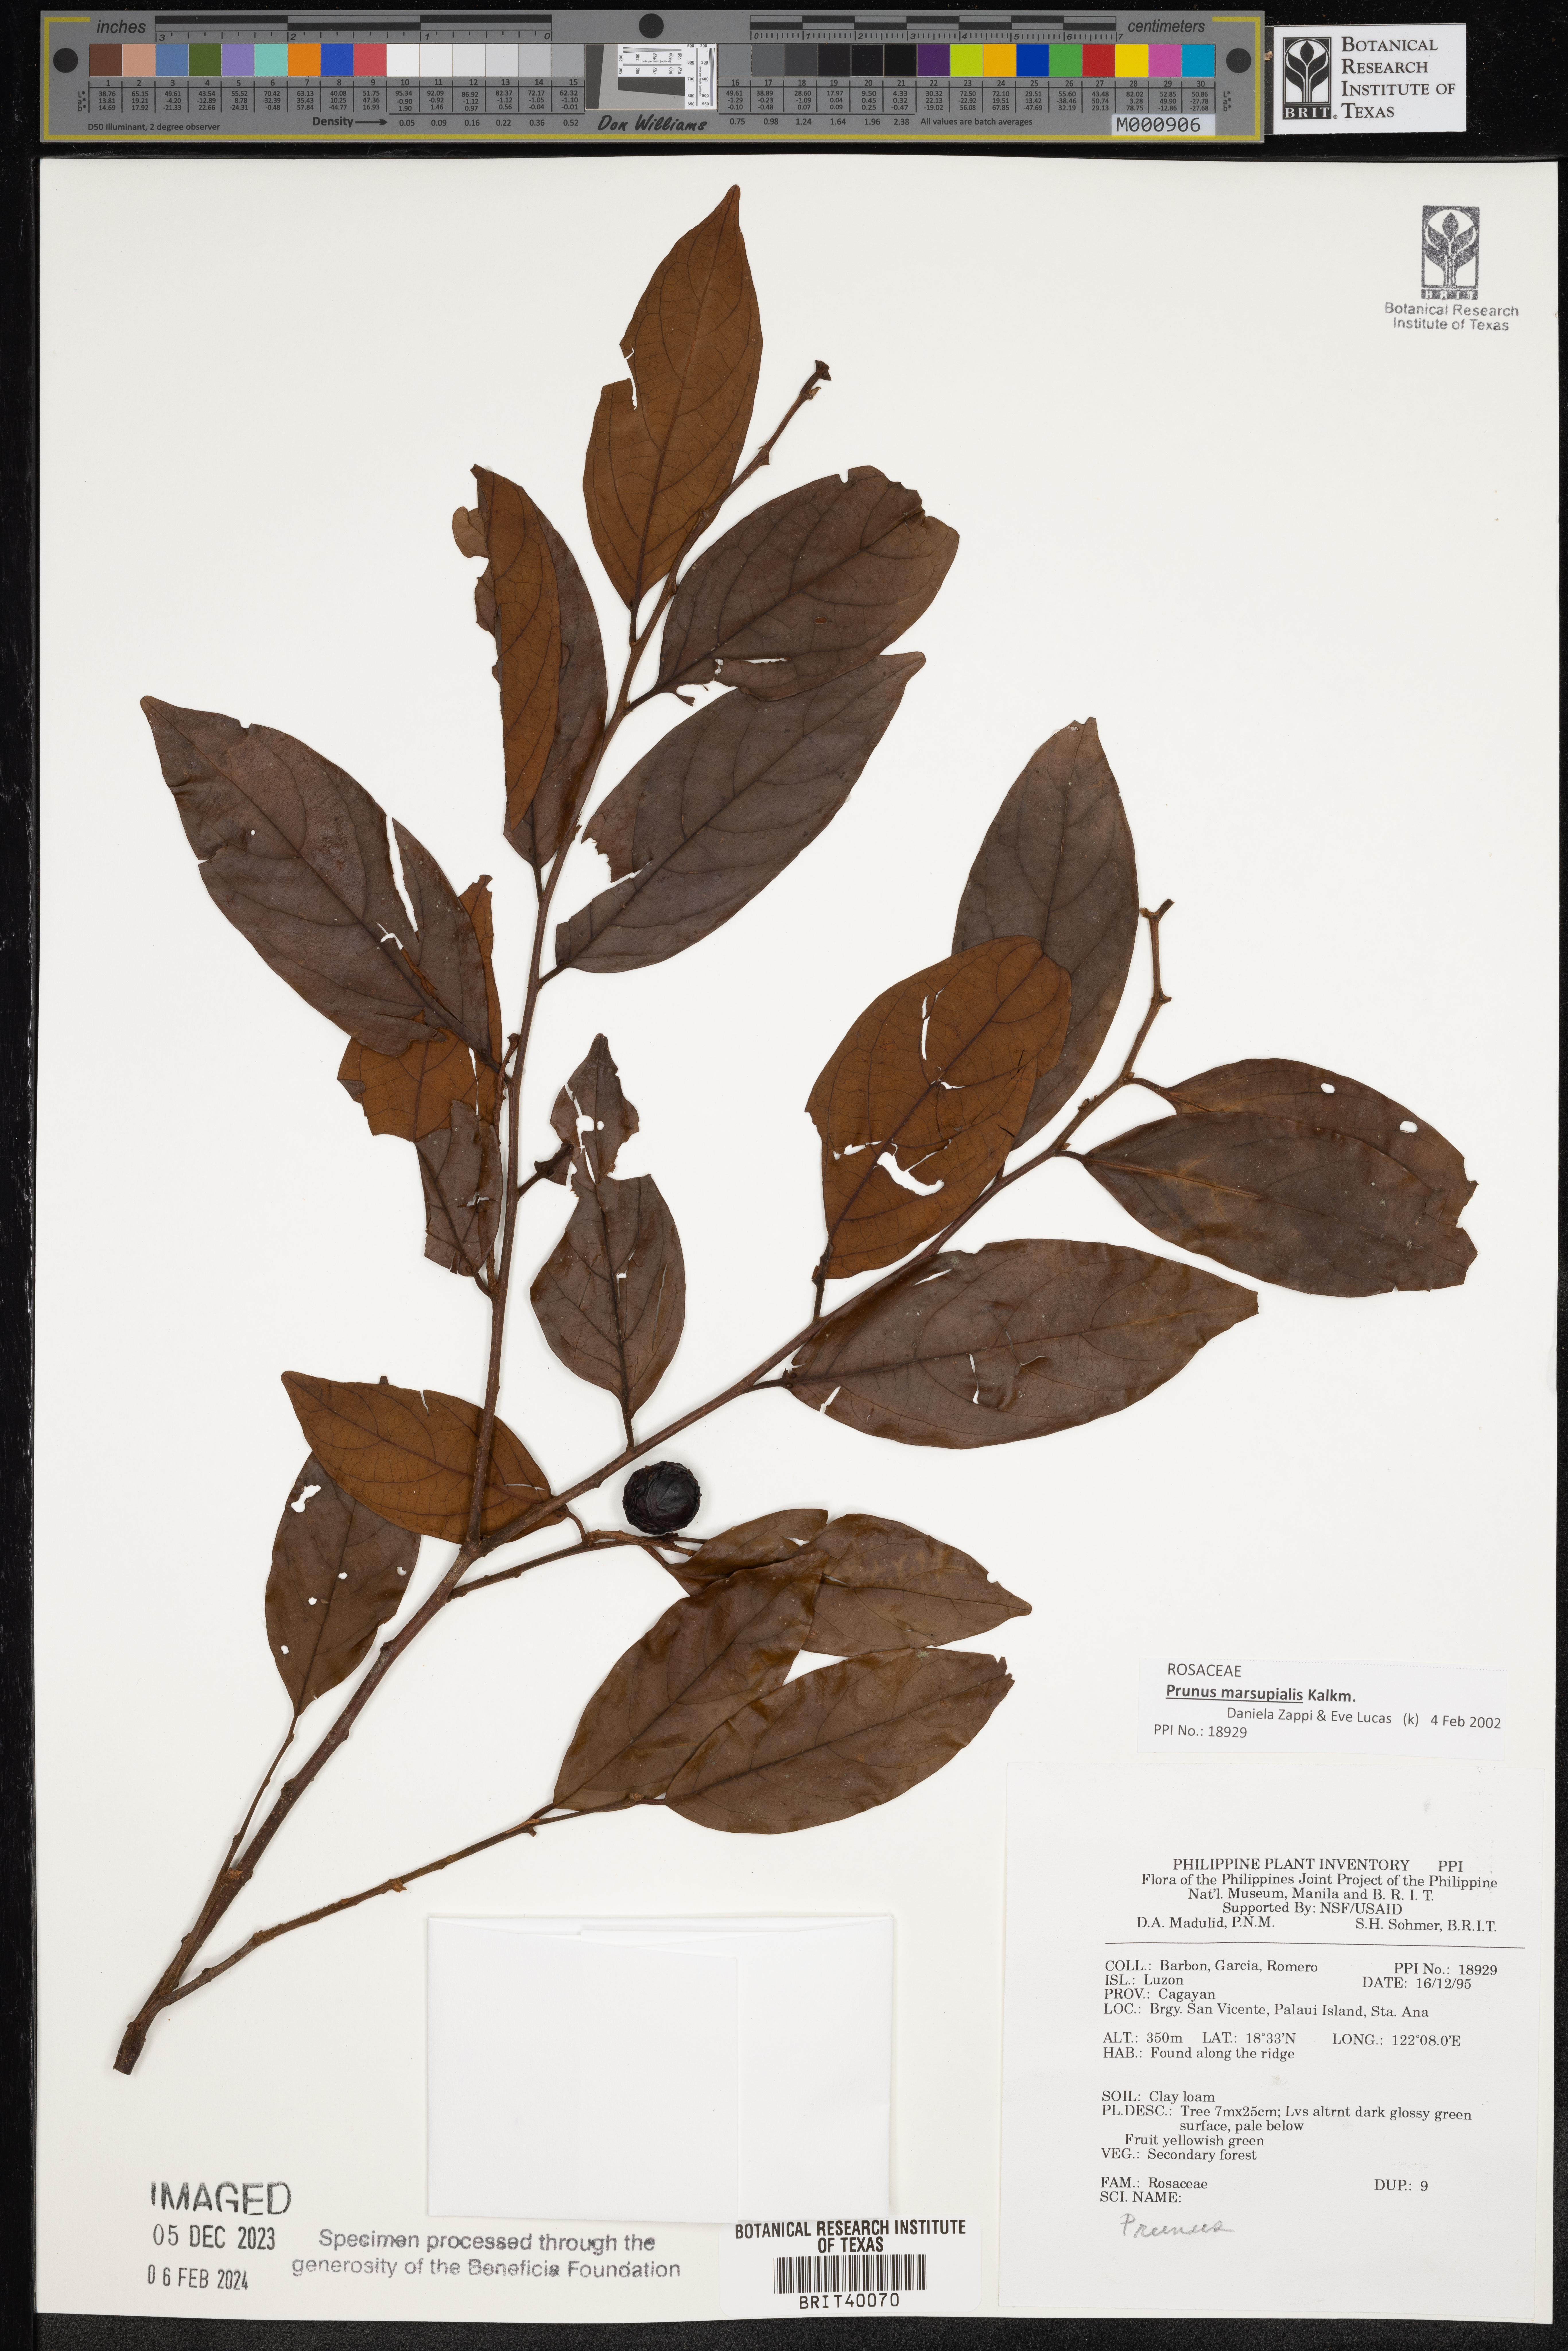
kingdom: Plantae
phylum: Tracheophyta
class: Magnoliopsida
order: Rosales
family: Rosaceae
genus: Prunus
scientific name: Prunus
